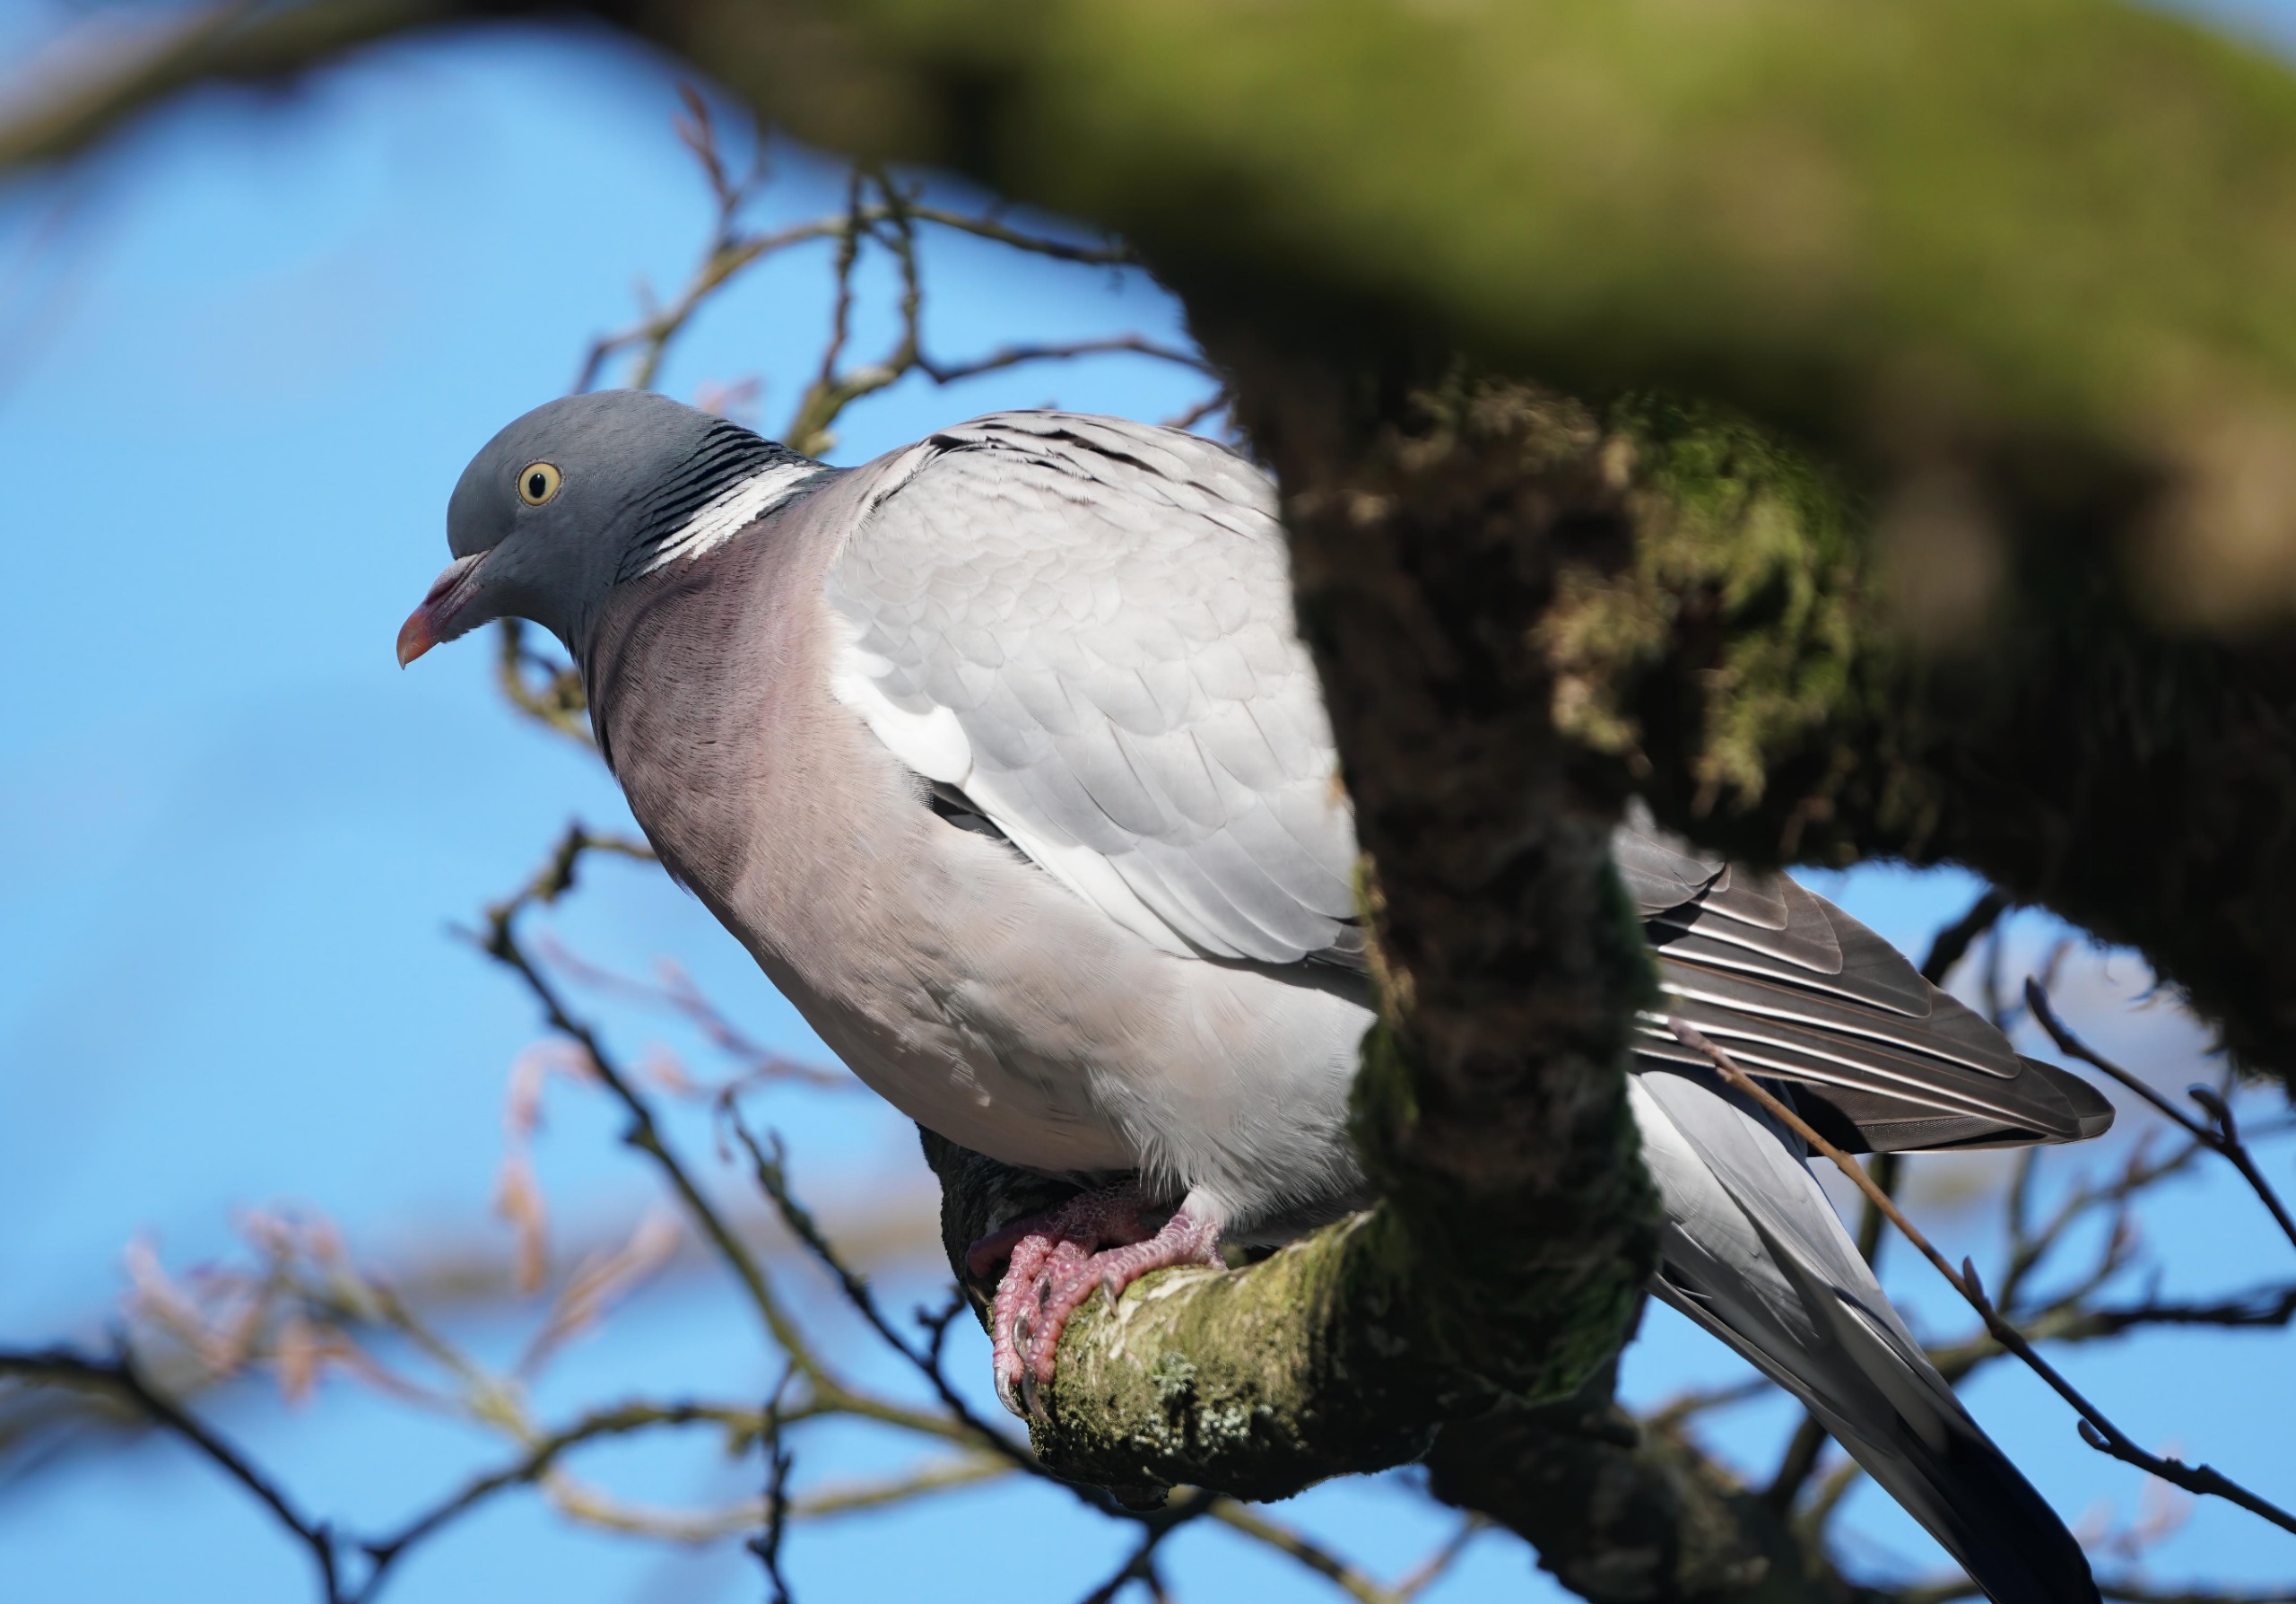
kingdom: Animalia
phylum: Chordata
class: Aves
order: Columbiformes
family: Columbidae
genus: Columba
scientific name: Columba palumbus
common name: Ringdue
